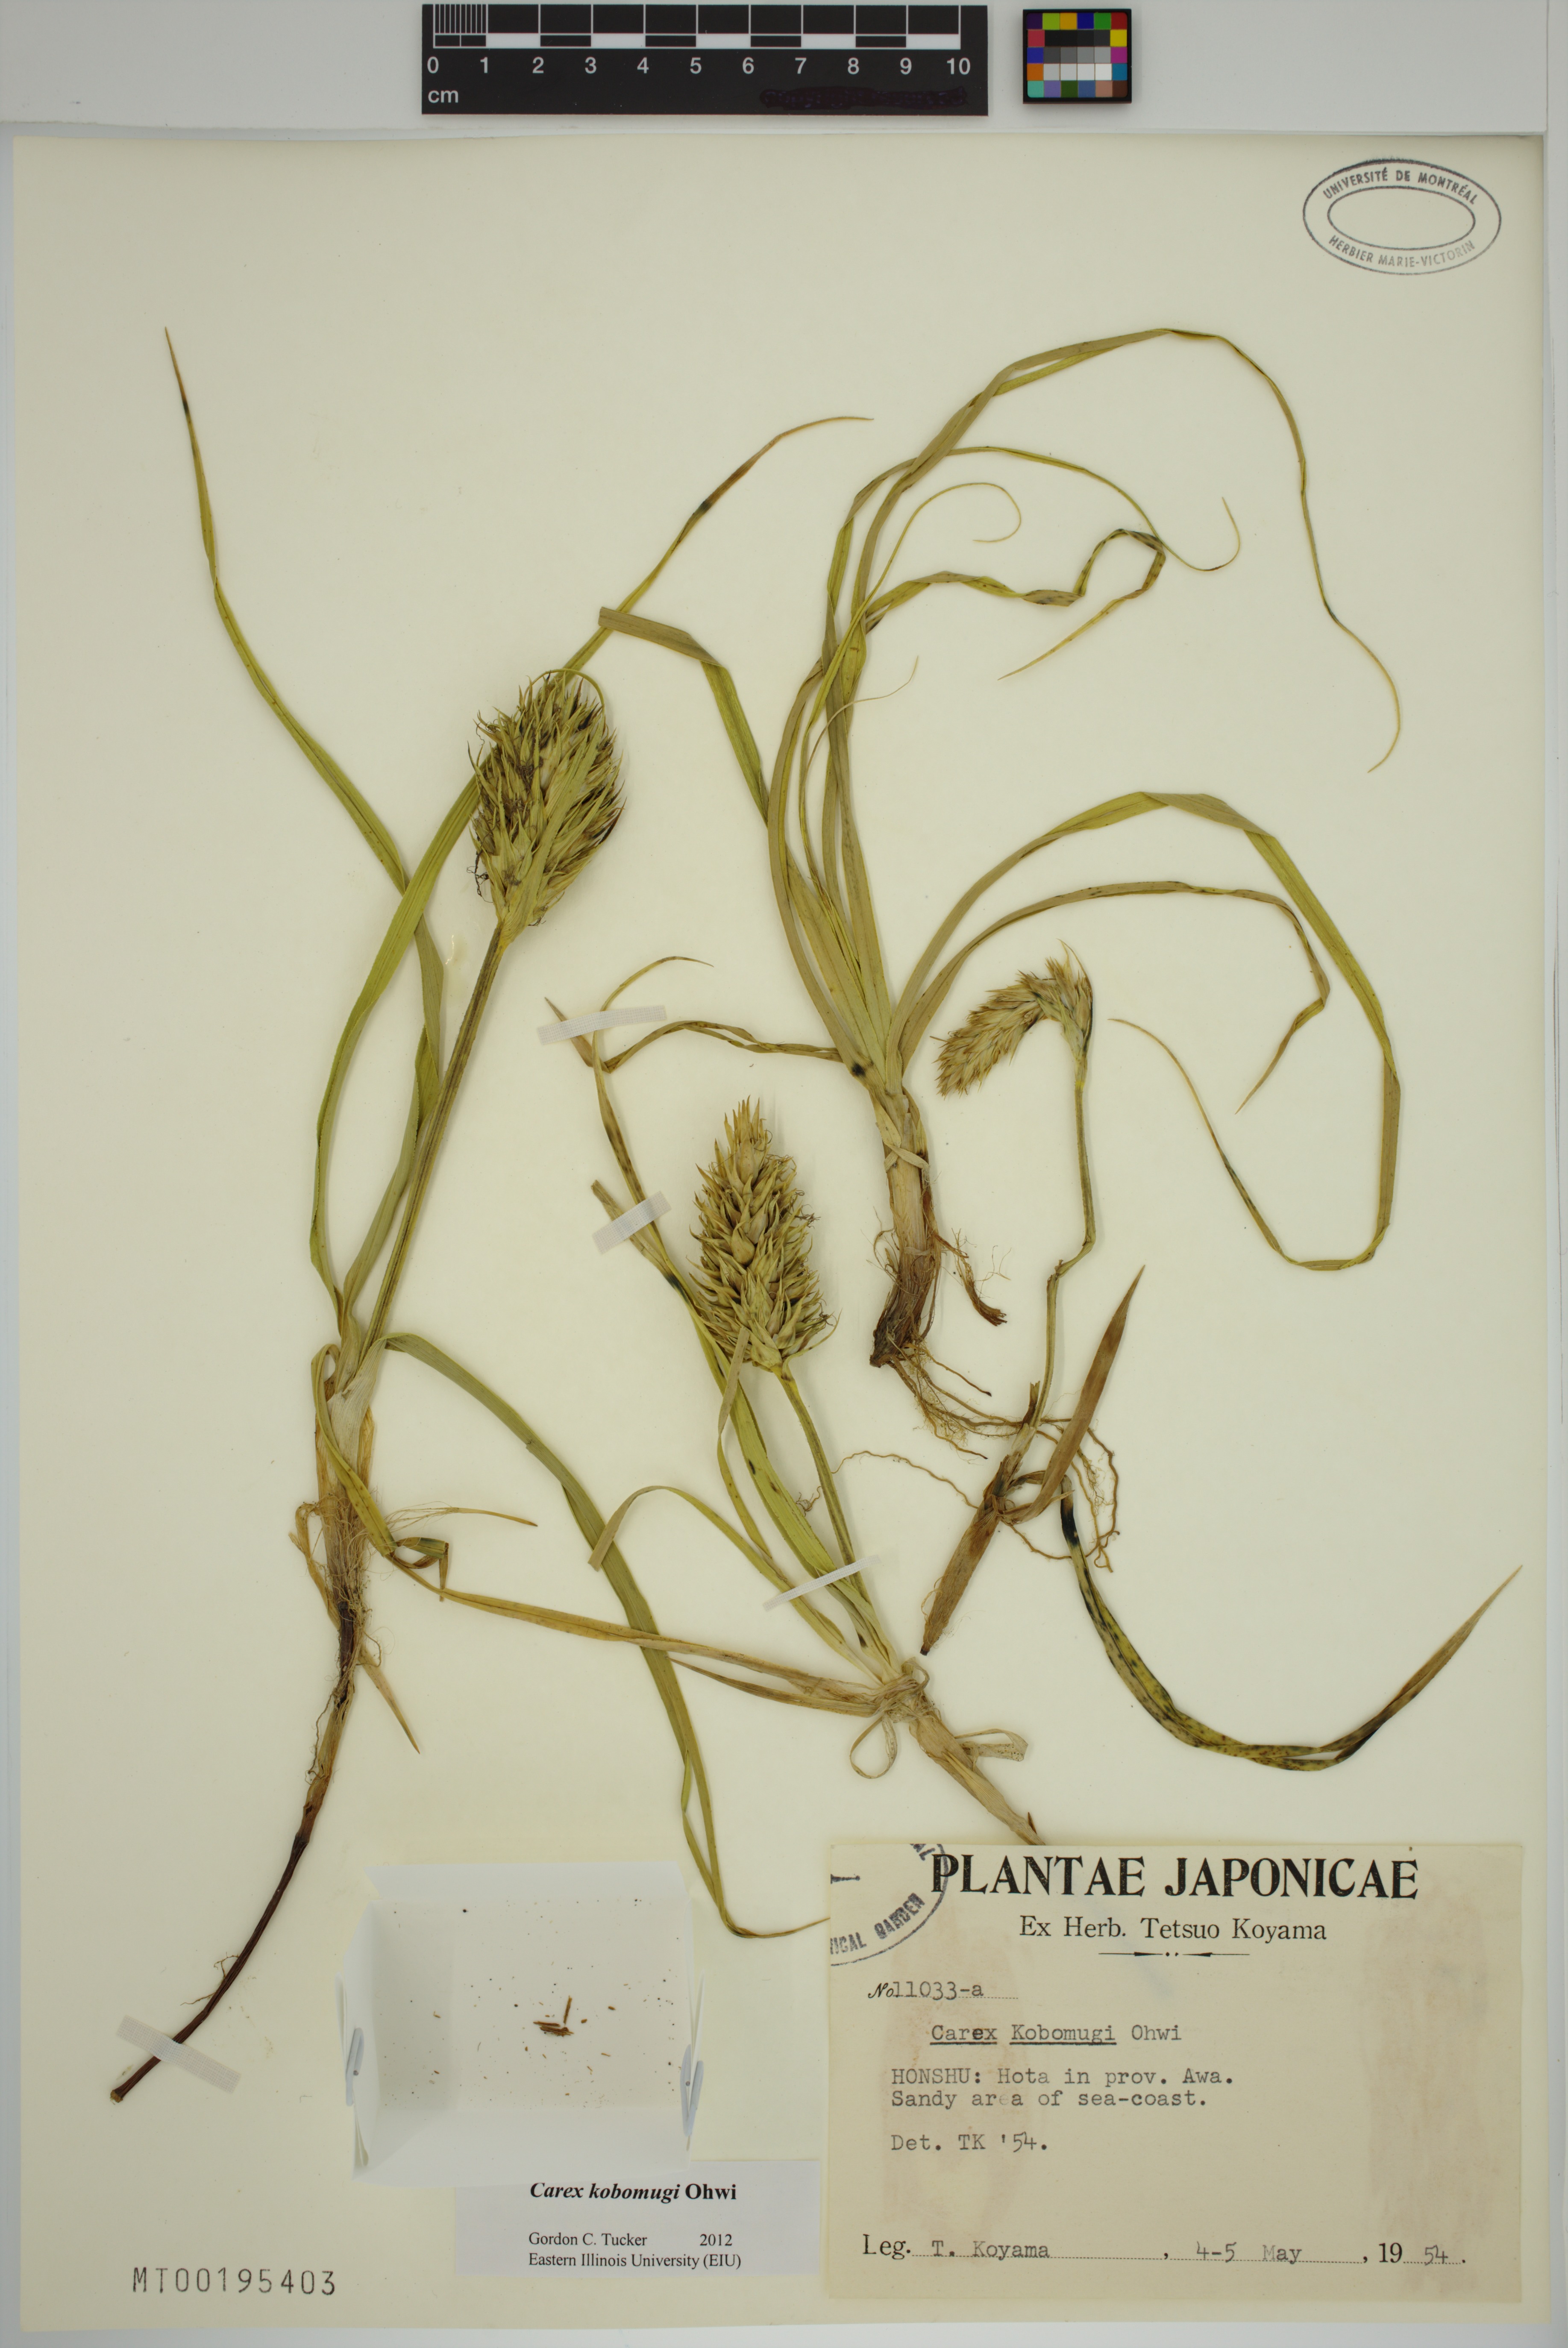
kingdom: Plantae
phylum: Tracheophyta
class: Liliopsida
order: Poales
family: Cyperaceae
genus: Carex
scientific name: Carex kobomugi
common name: Japanese sedge
